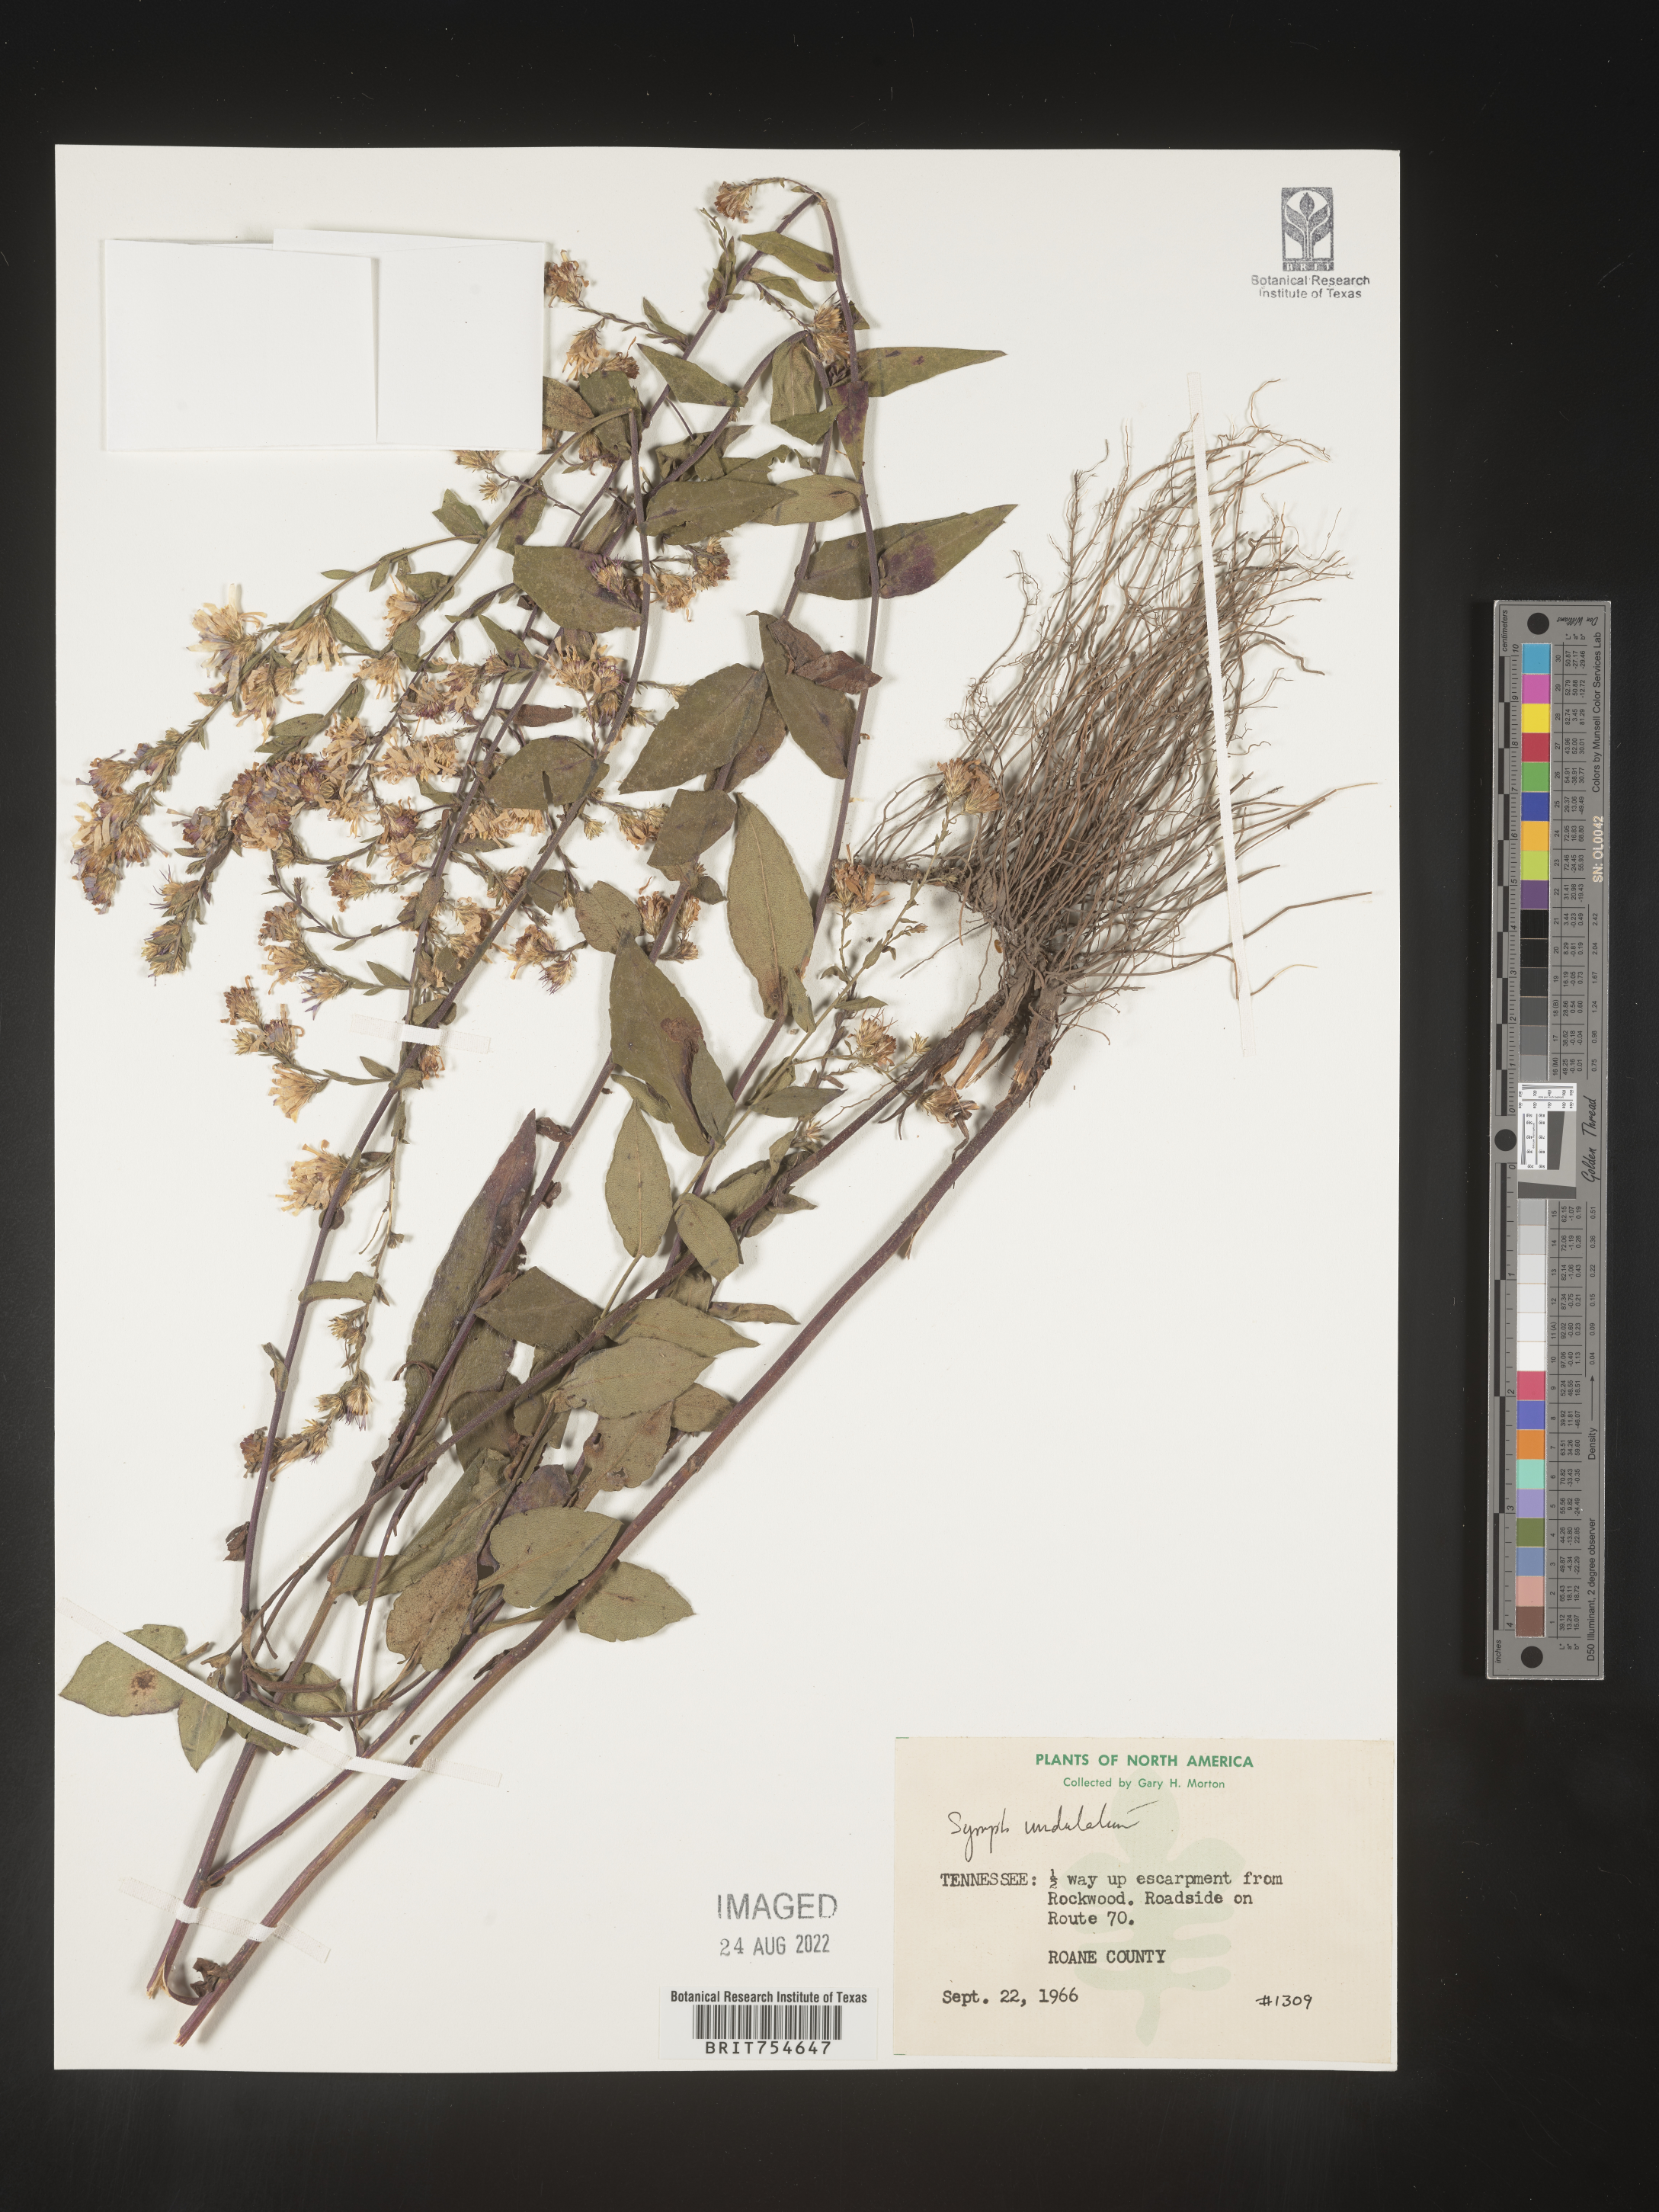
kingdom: Plantae
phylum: Tracheophyta
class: Magnoliopsida
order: Asterales
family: Asteraceae
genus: Symphyotrichum
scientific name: Symphyotrichum undulatum
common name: Clasping heart-leaf aster
